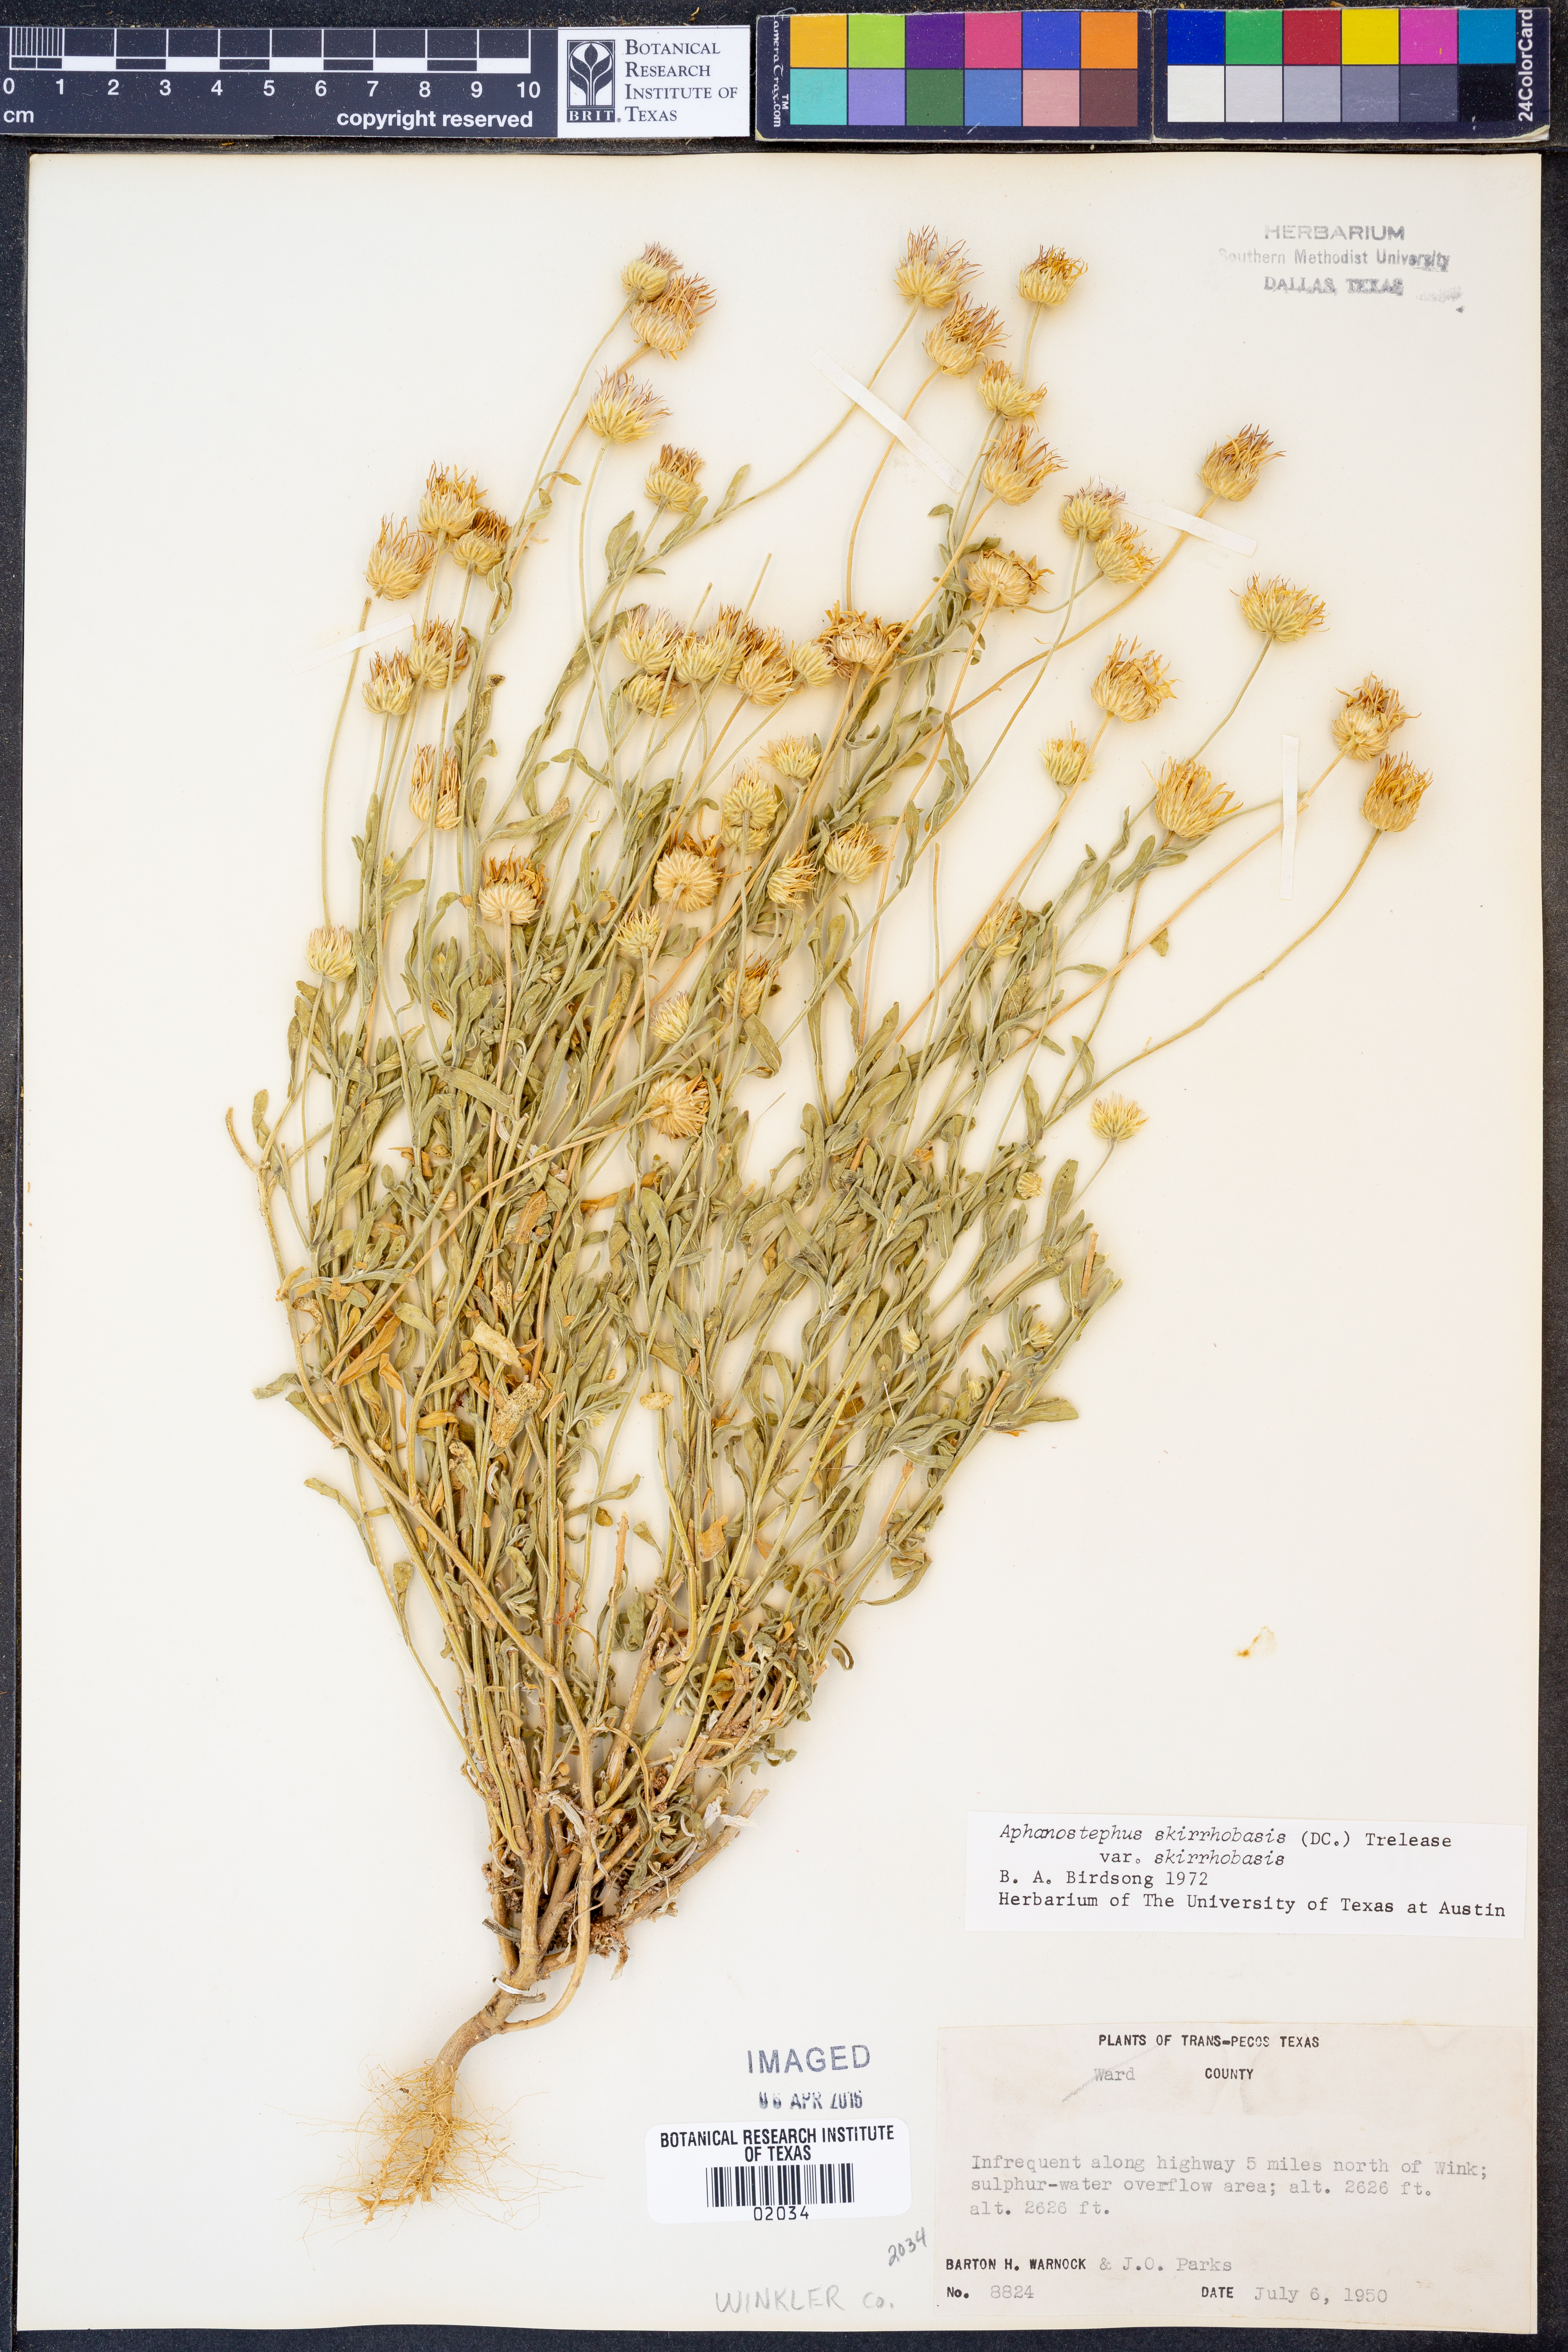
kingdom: Plantae
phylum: Tracheophyta
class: Magnoliopsida
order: Asterales
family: Asteraceae
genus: Aphanostephus
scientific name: Aphanostephus skirrhobasis
